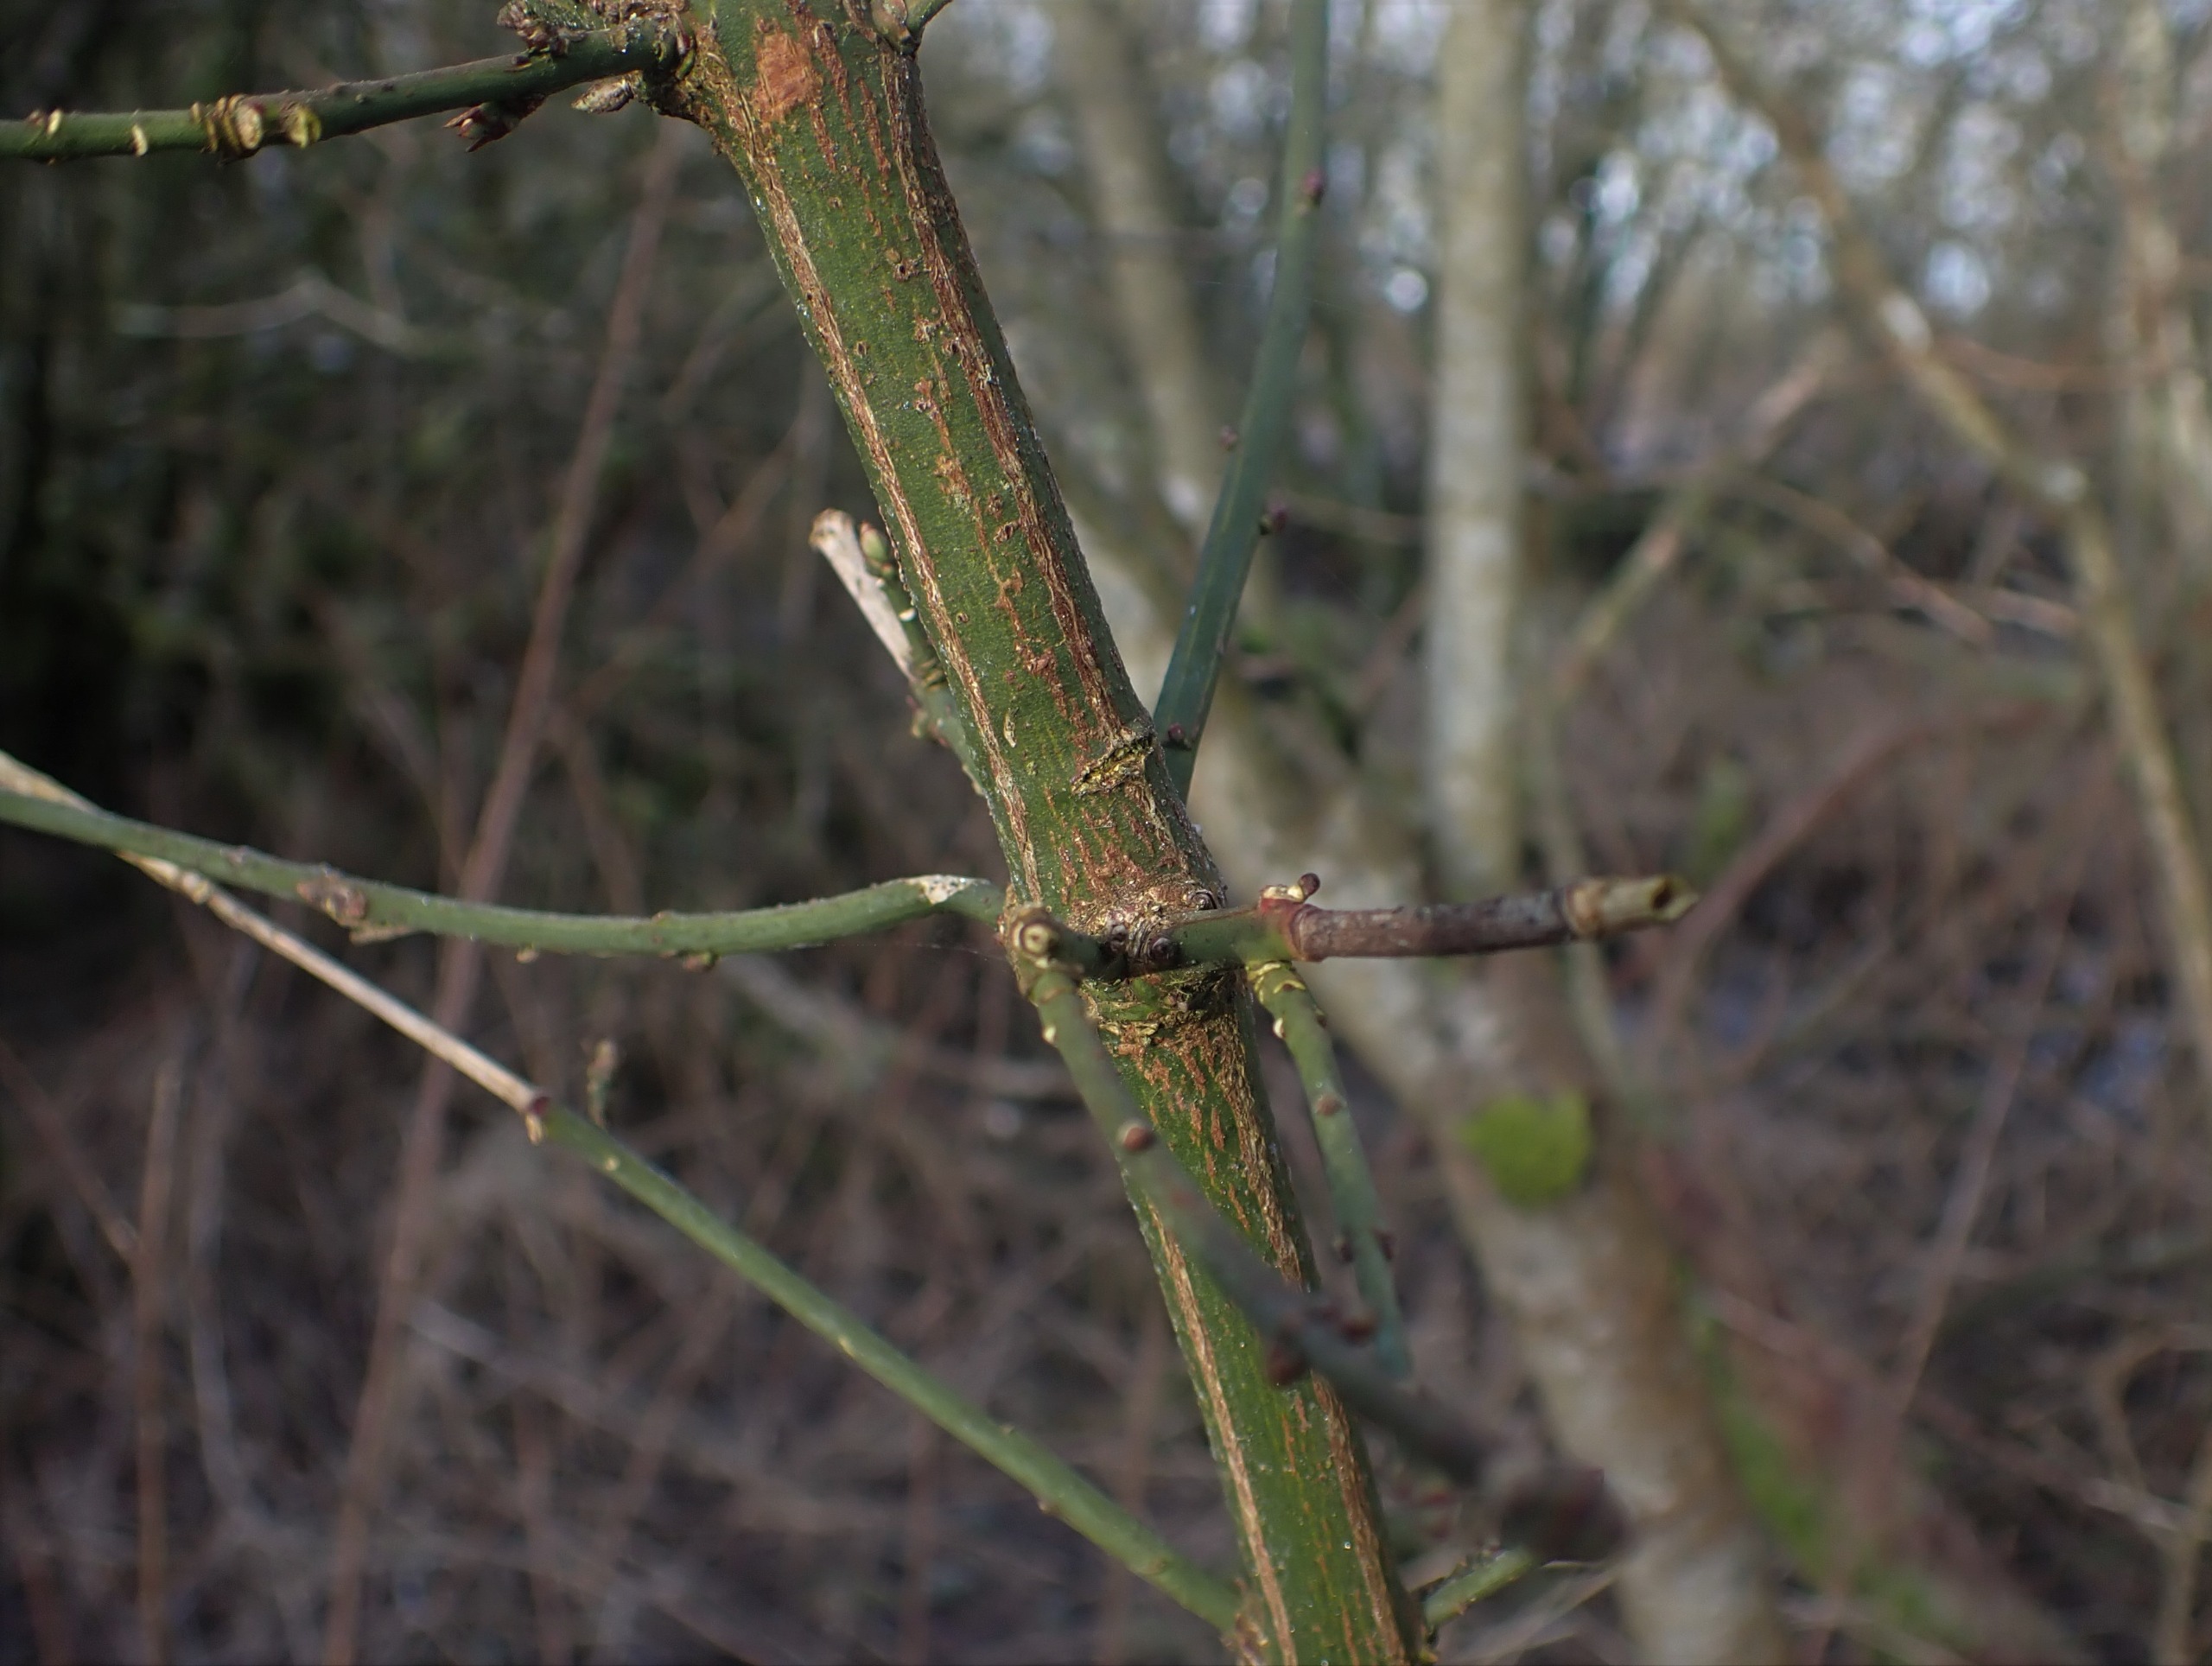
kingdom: Plantae
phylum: Tracheophyta
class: Magnoliopsida
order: Celastrales
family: Celastraceae
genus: Euonymus
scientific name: Euonymus europaeus
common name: Benved
